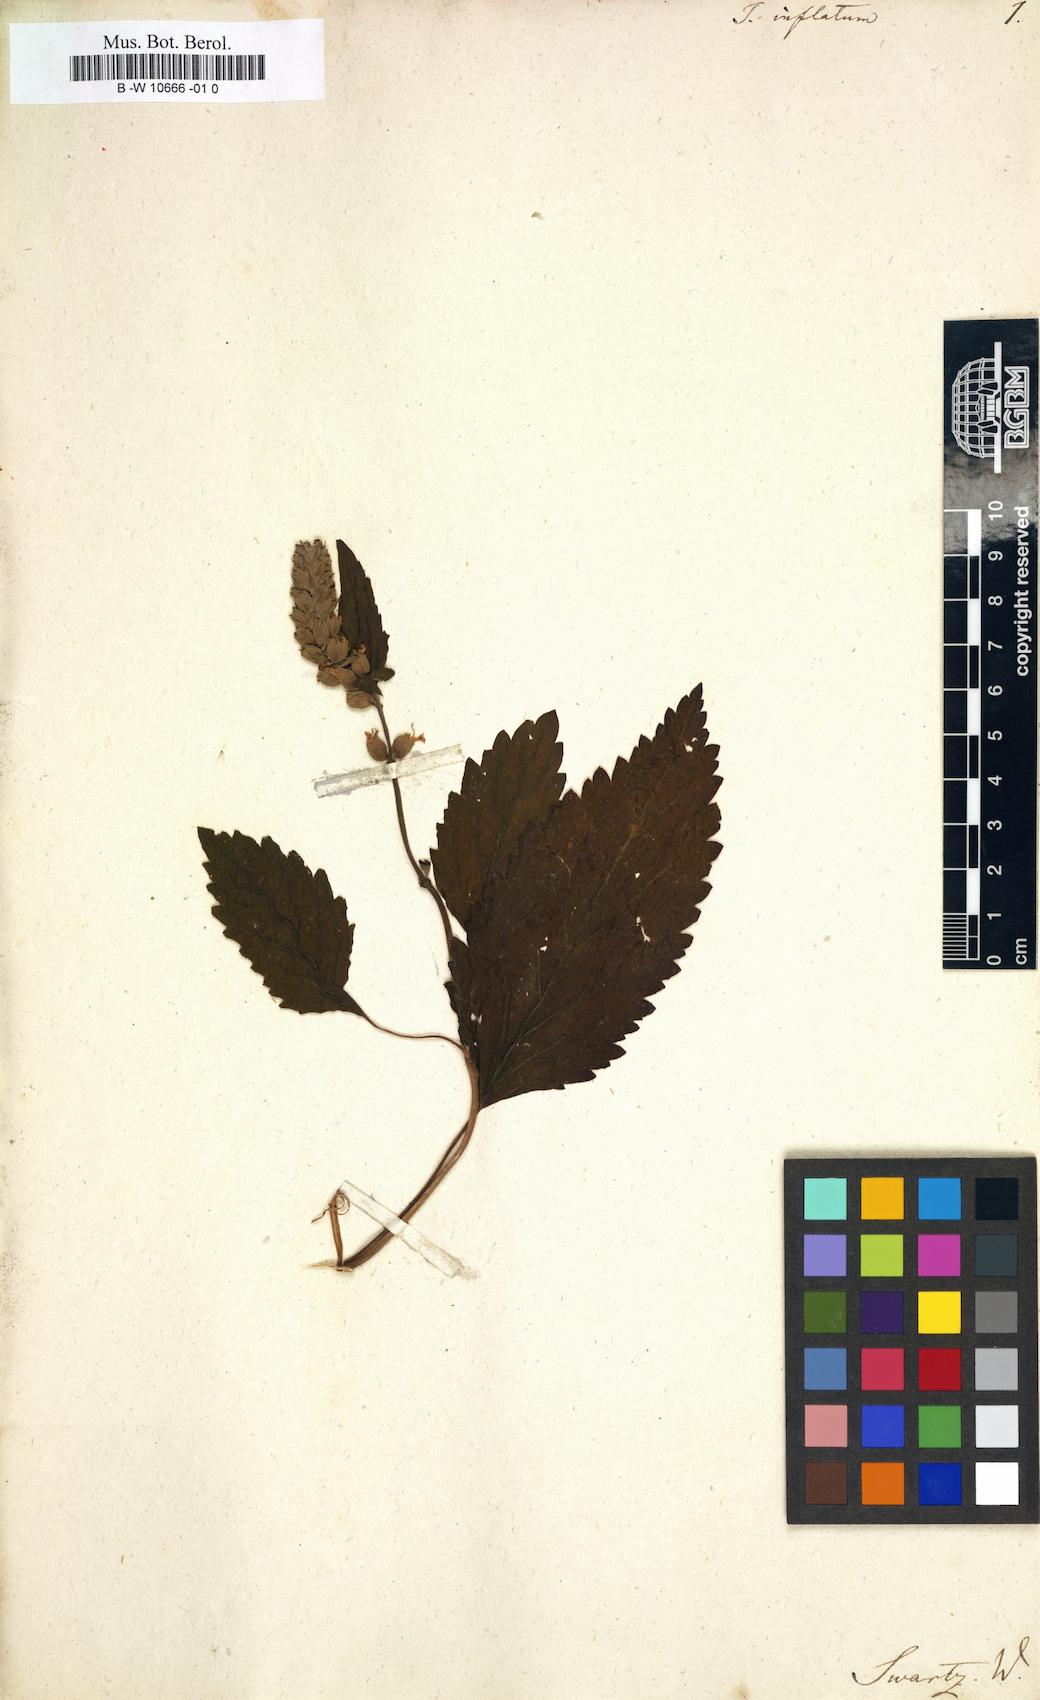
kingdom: Plantae
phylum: Tracheophyta
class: Magnoliopsida
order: Lamiales
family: Lamiaceae
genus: Teucrium
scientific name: Teucrium vesicarium
